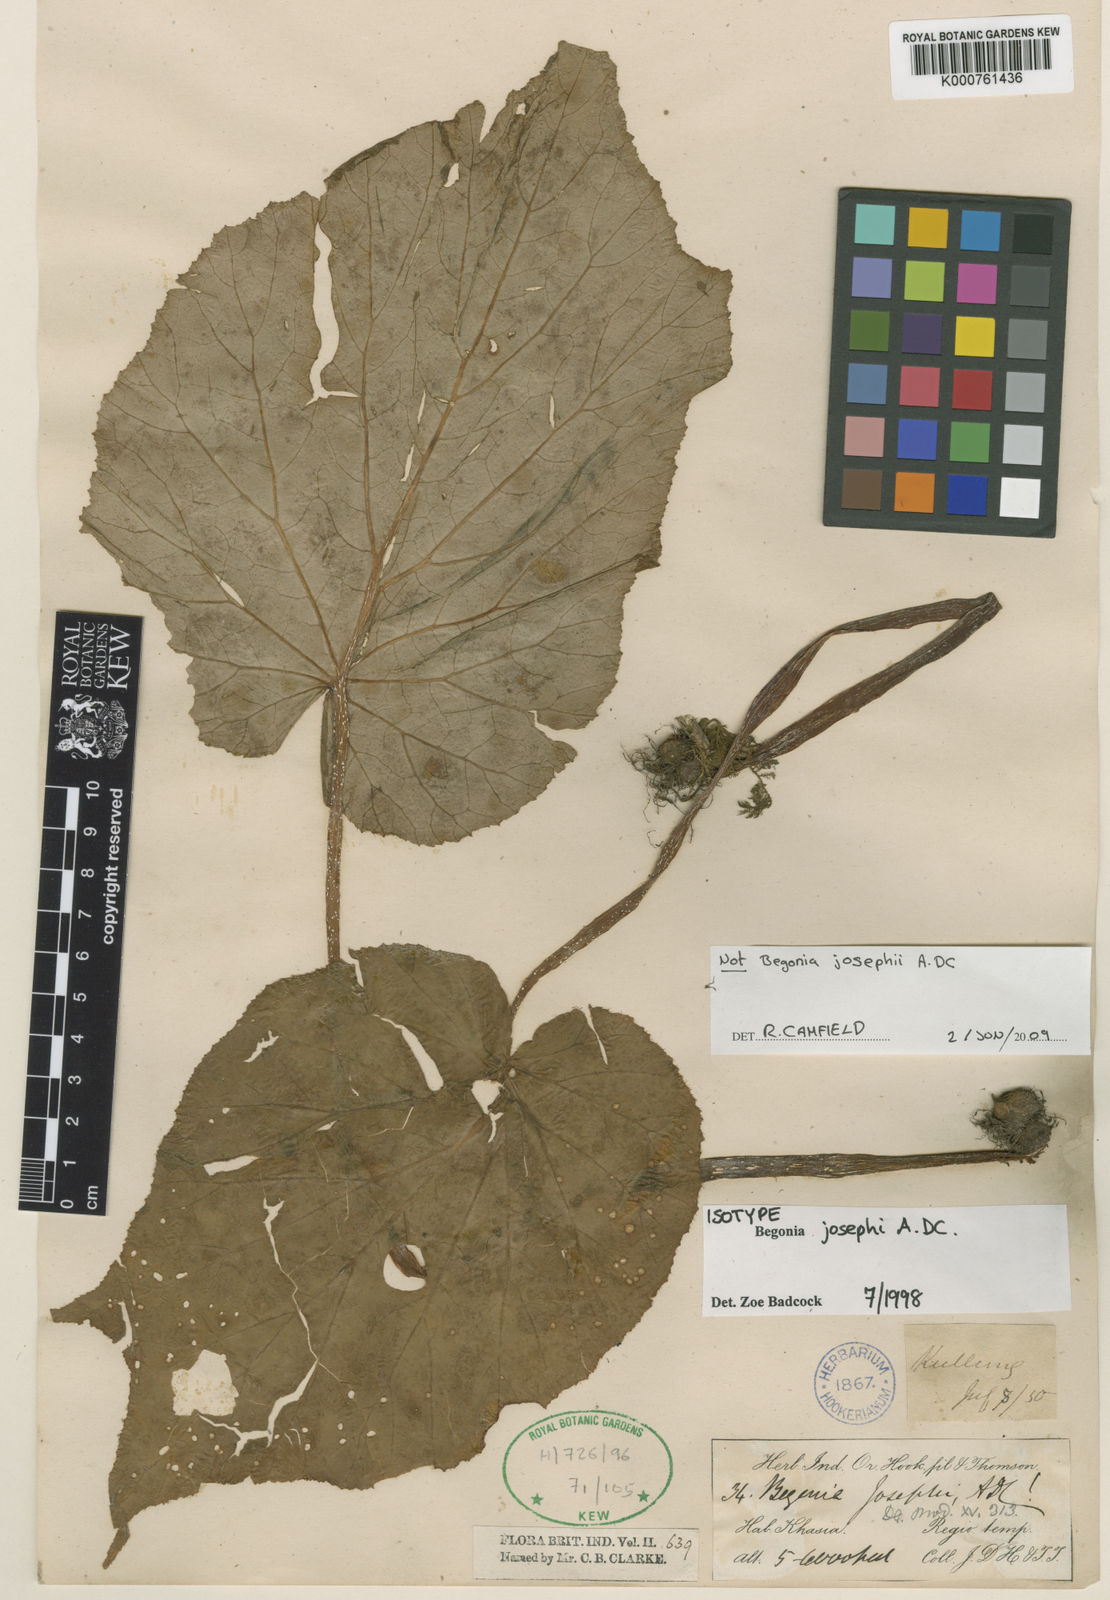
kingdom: Plantae
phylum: Tracheophyta
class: Magnoliopsida
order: Cucurbitales
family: Begoniaceae
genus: Begonia
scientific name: Begonia josephi
